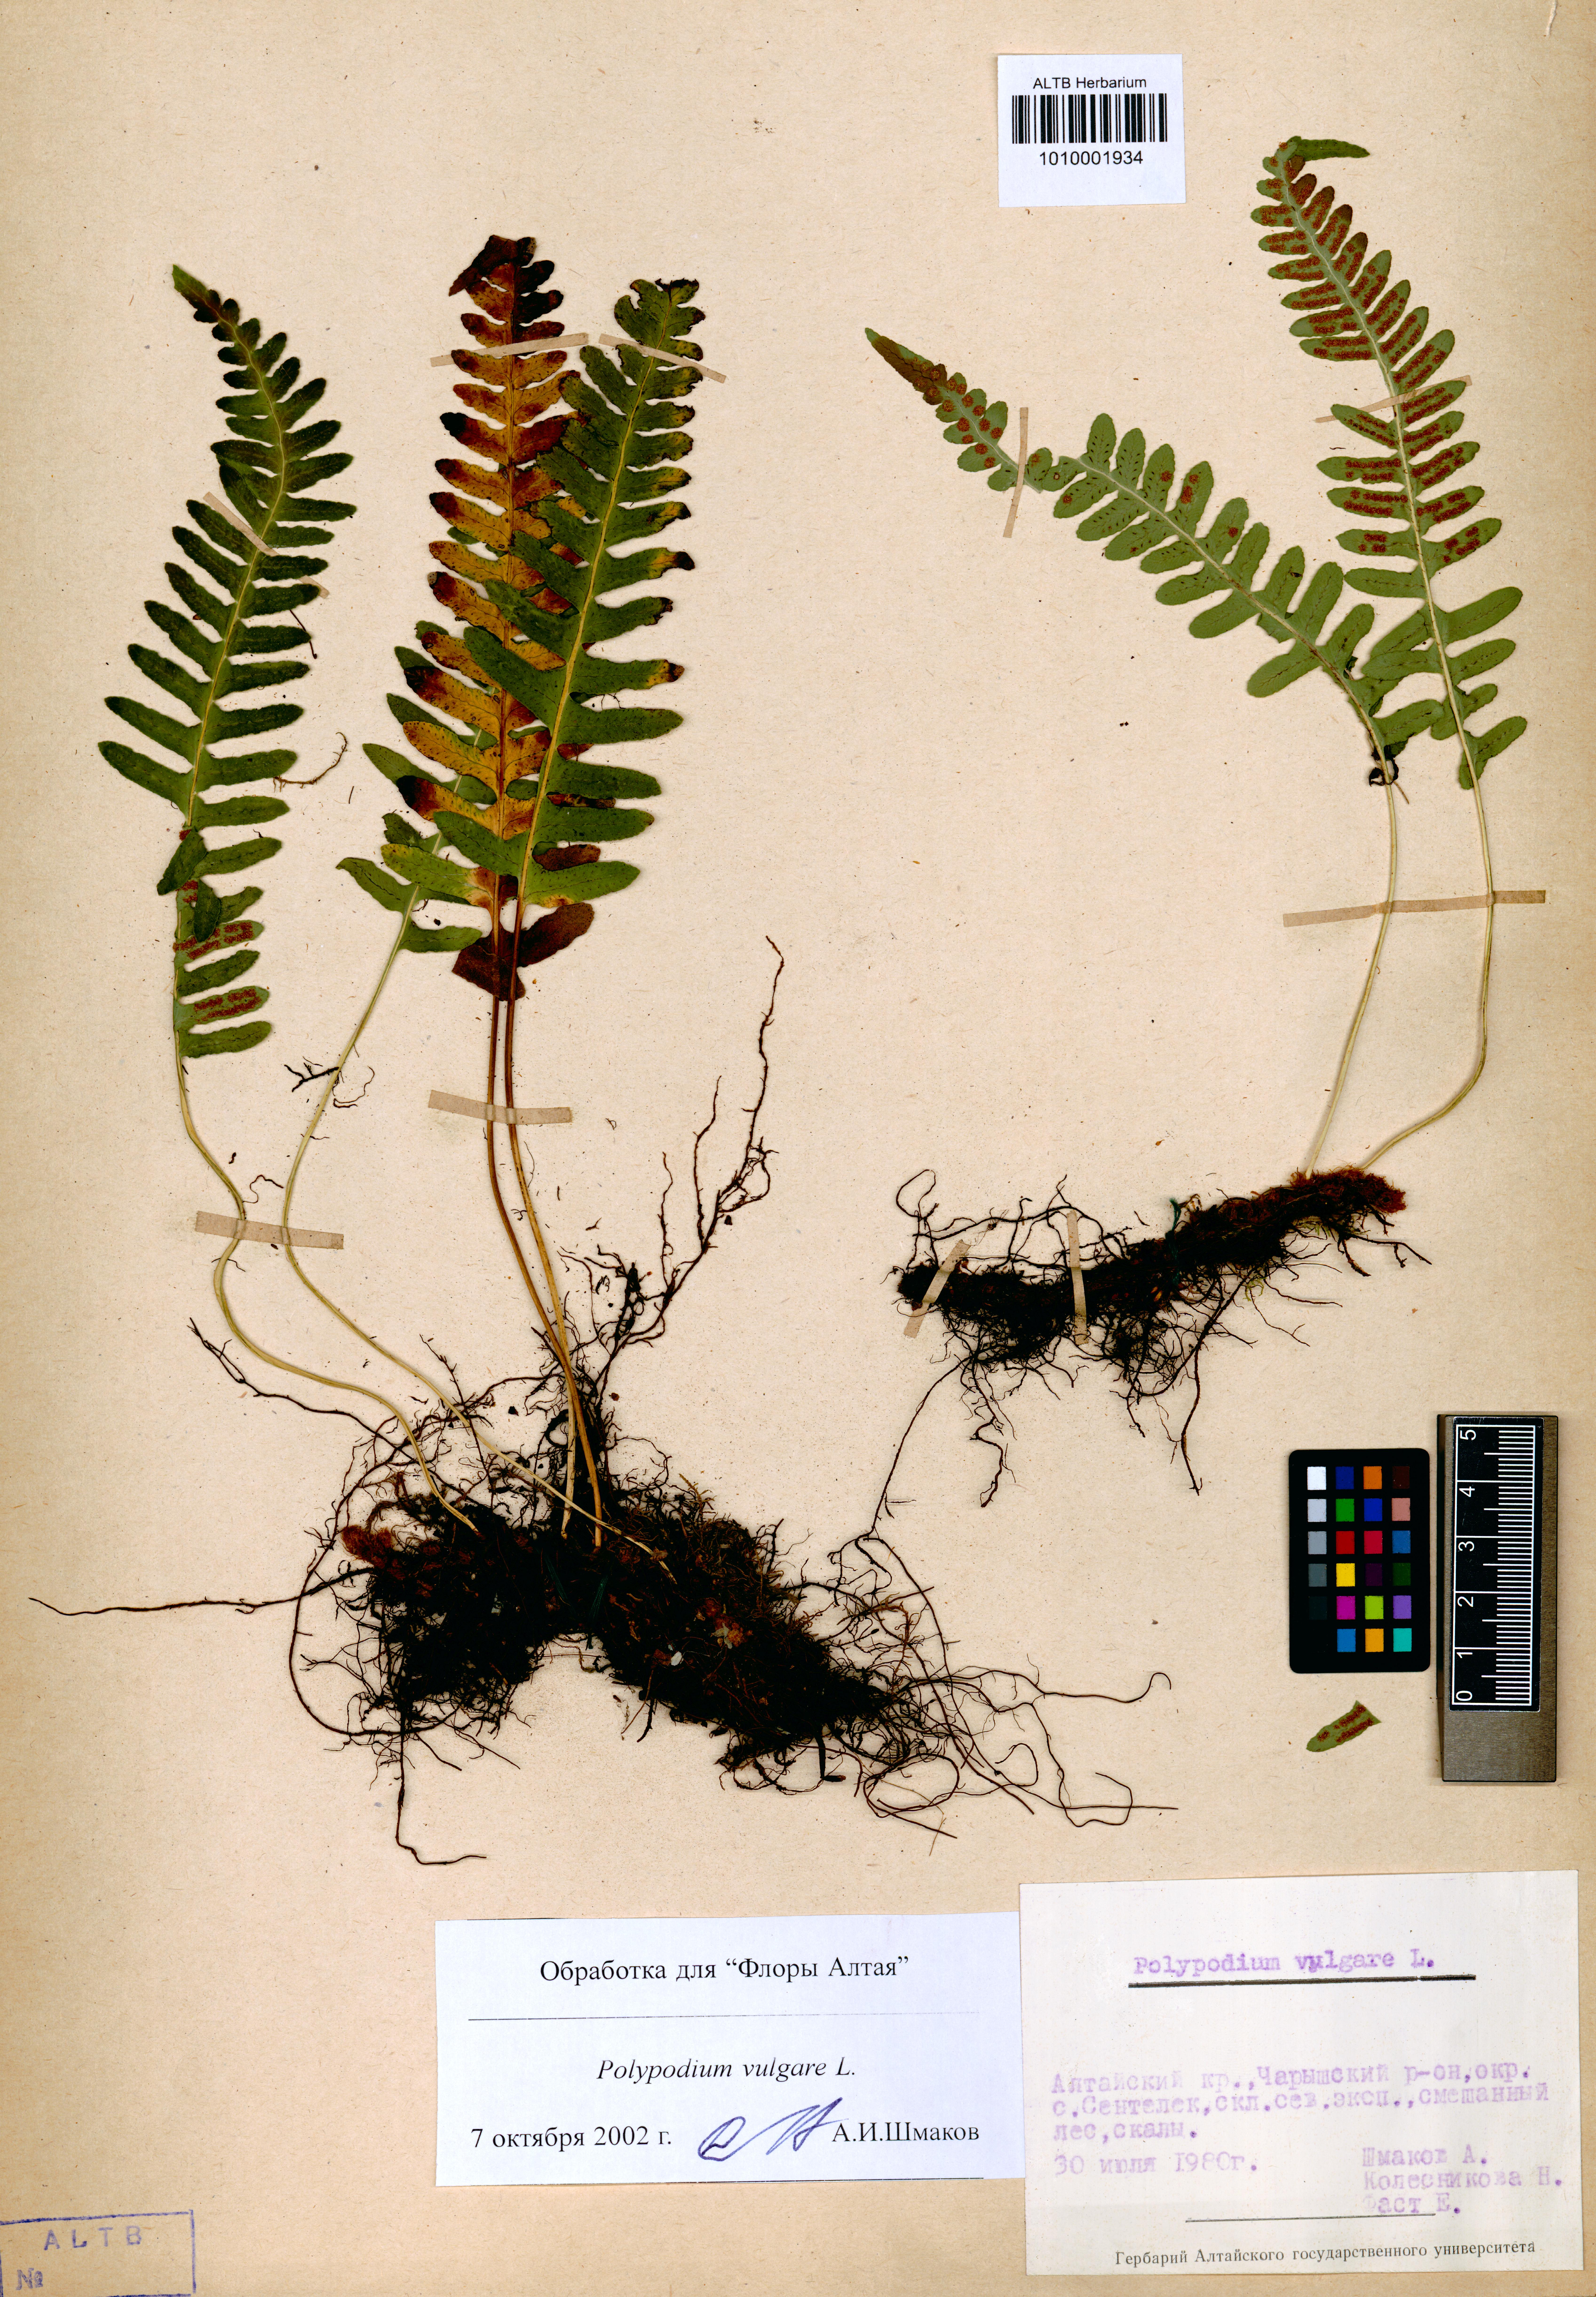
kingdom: Plantae
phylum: Tracheophyta
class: Polypodiopsida
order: Polypodiales
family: Polypodiaceae
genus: Polypodium
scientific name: Polypodium vulgare
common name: Common polypody
